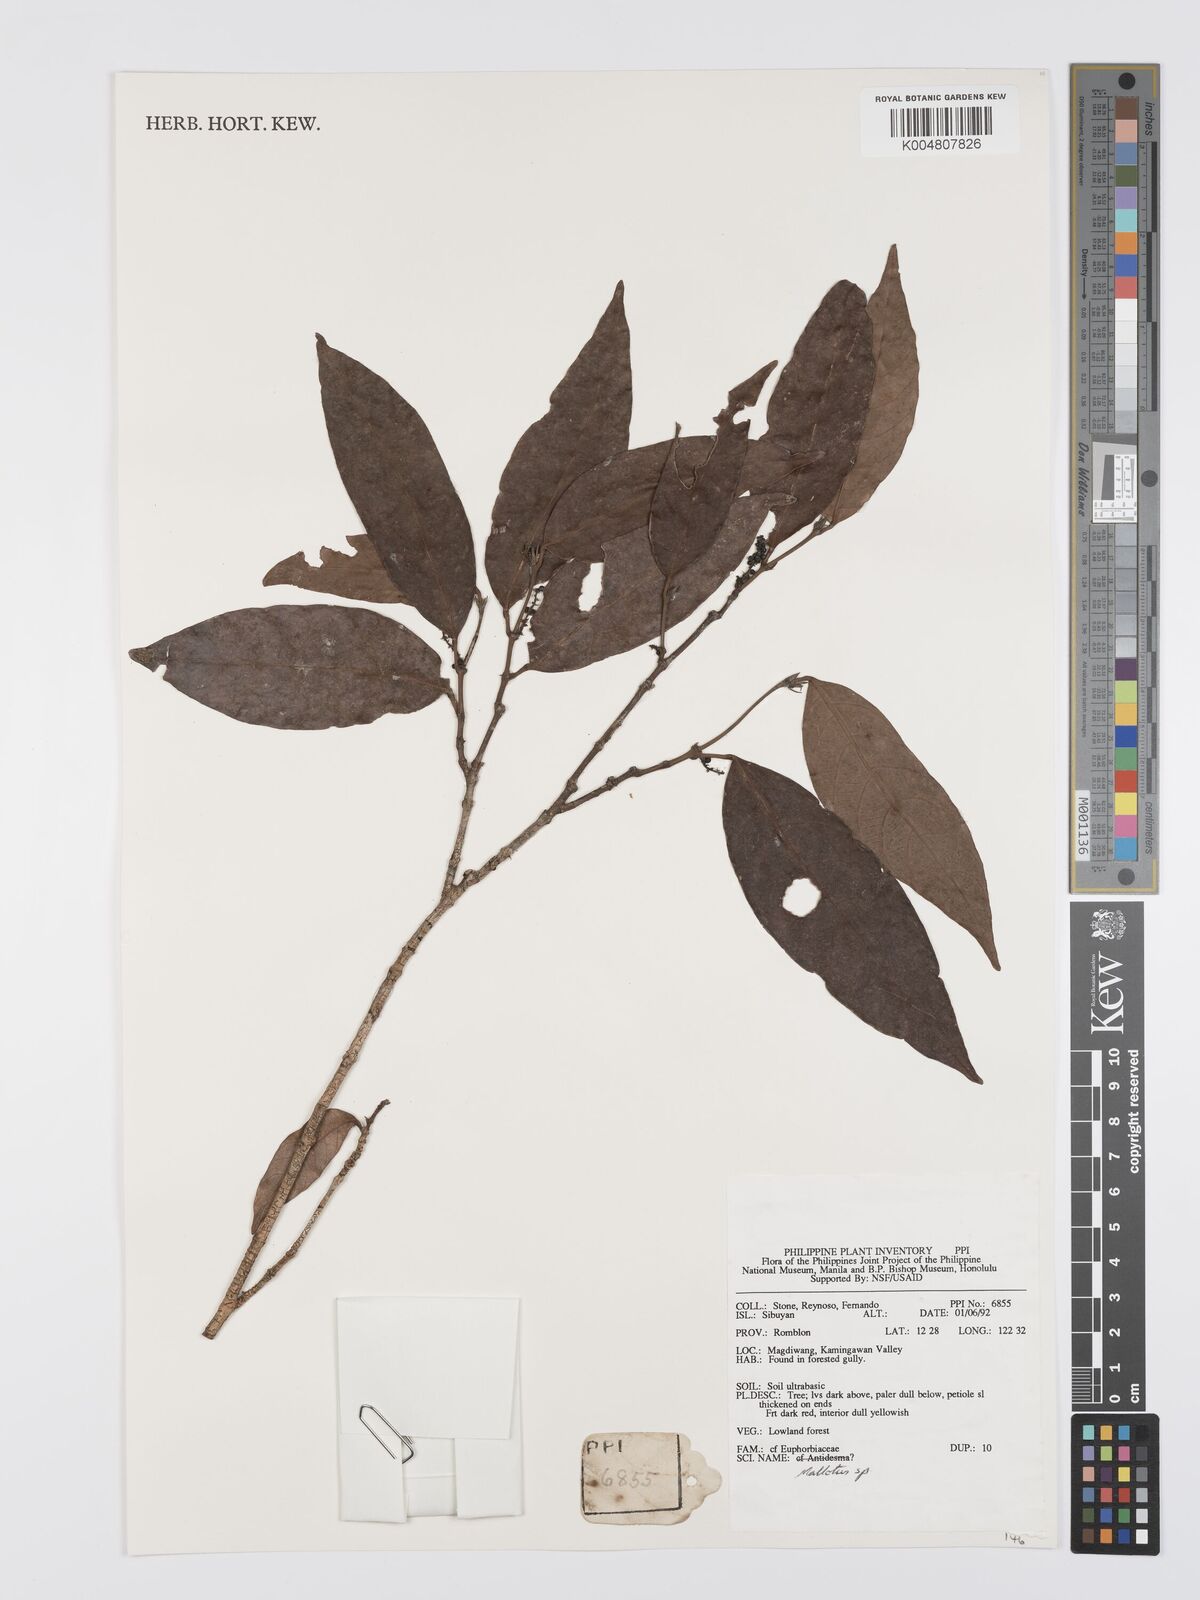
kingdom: Plantae
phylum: Tracheophyta
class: Magnoliopsida
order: Malpighiales
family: Euphorbiaceae
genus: Mallotus
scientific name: Mallotus
